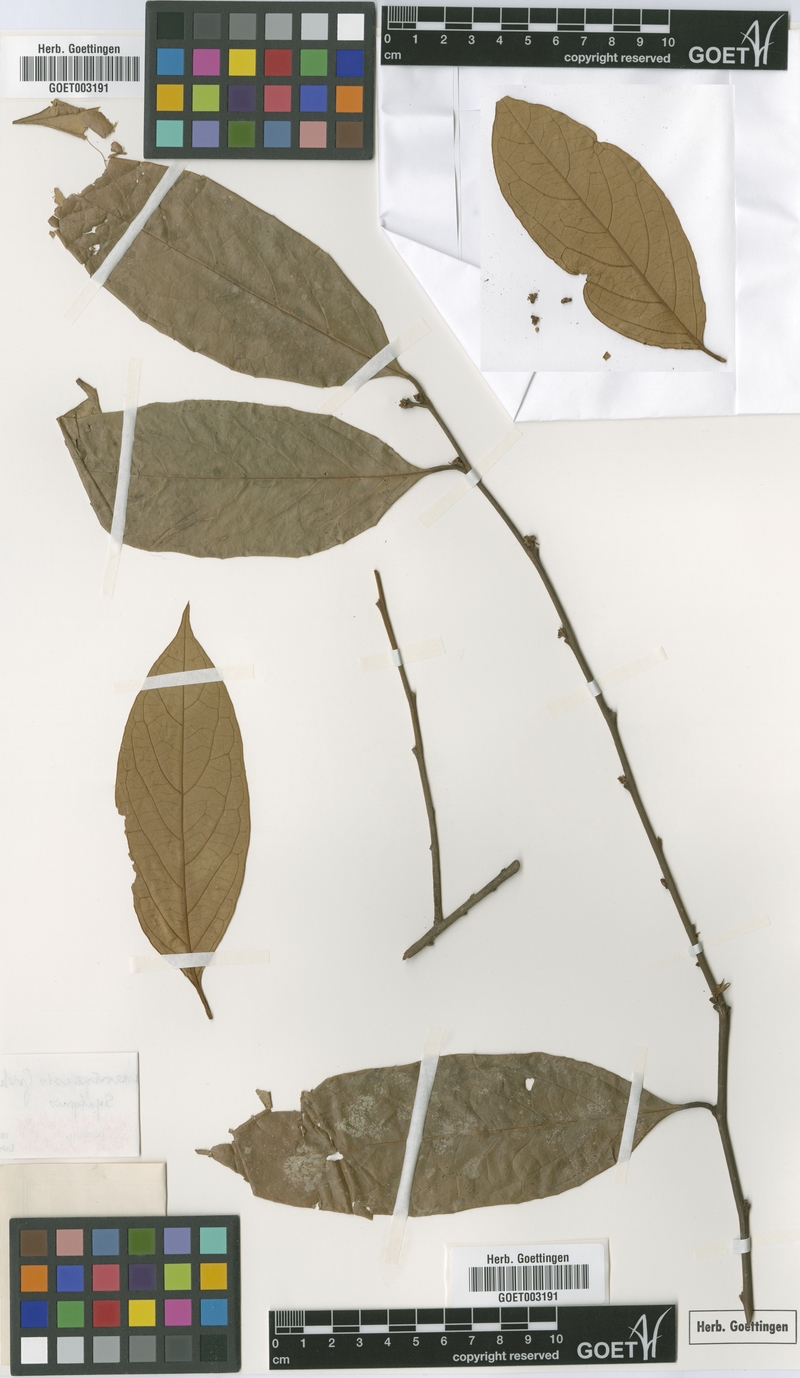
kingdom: Plantae
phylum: Tracheophyta
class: Magnoliopsida
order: Ericales
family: Ebenaceae
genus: Diospyros
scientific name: Diospyros kamerunensis
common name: African ebony
